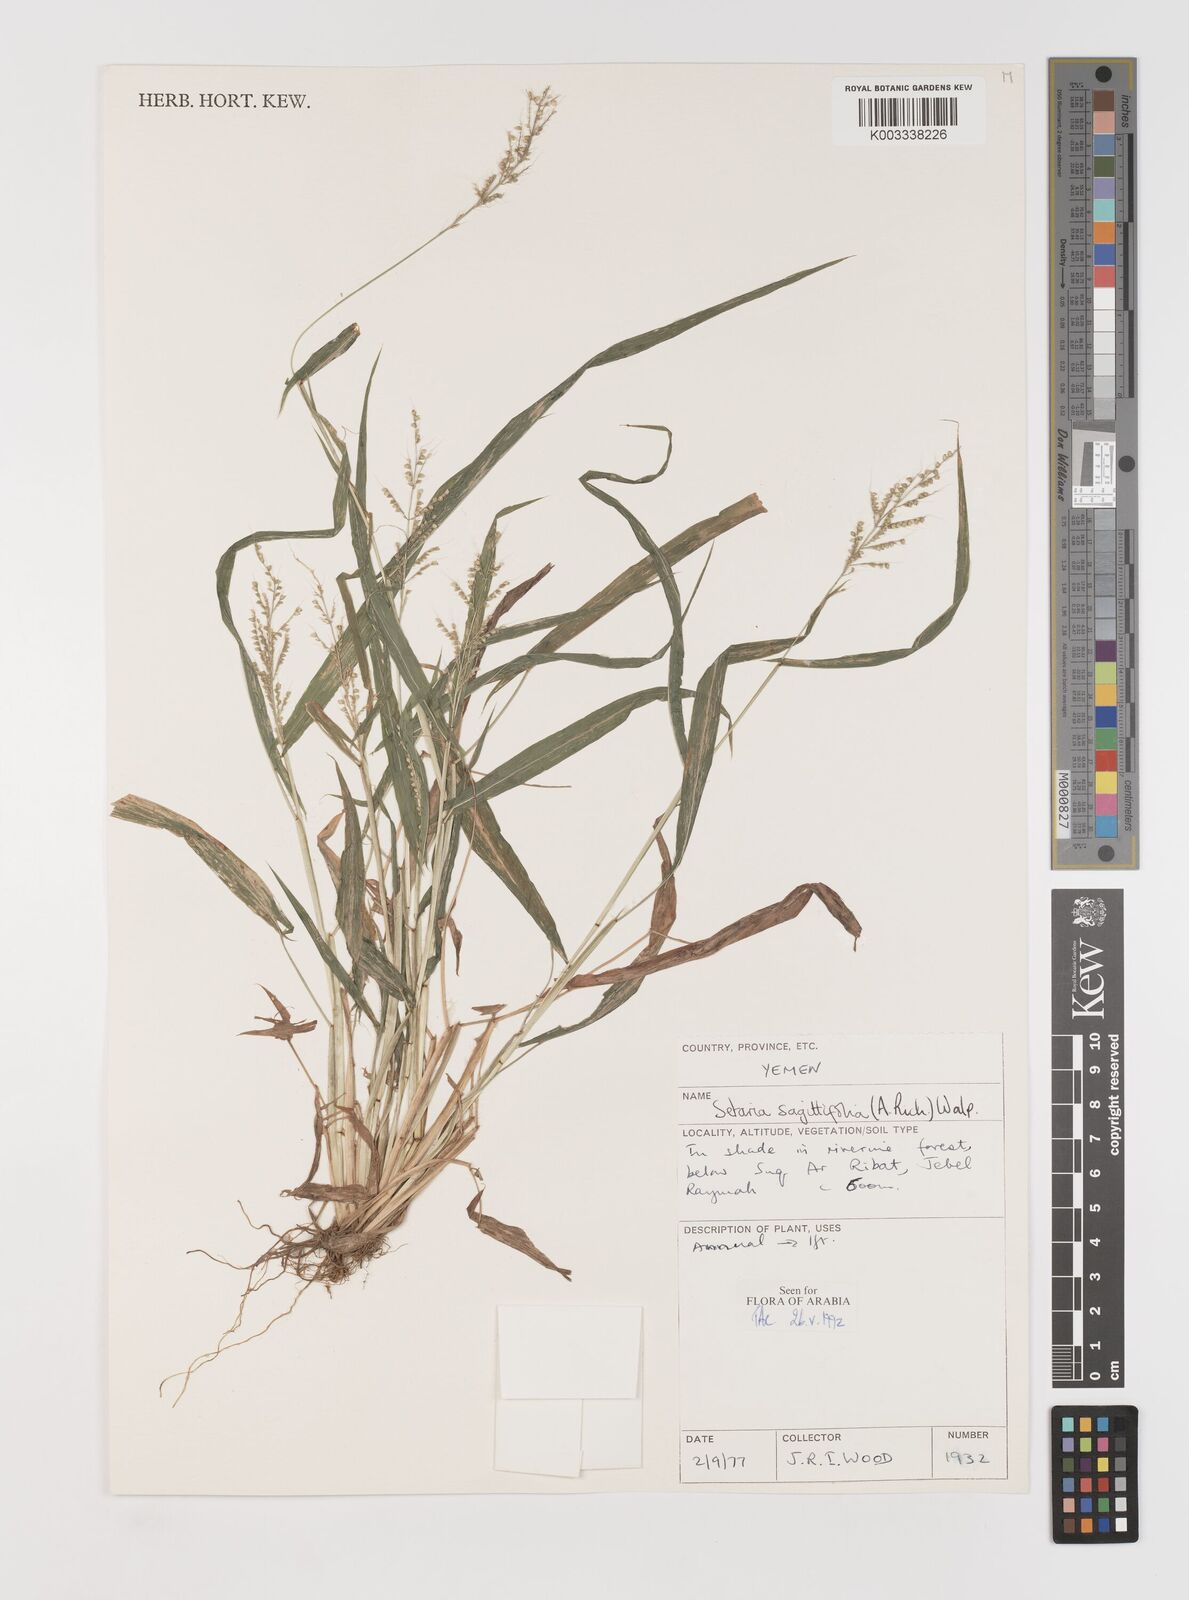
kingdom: Plantae
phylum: Tracheophyta
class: Liliopsida
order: Poales
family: Poaceae
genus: Setaria
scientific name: Setaria sagittifolia
